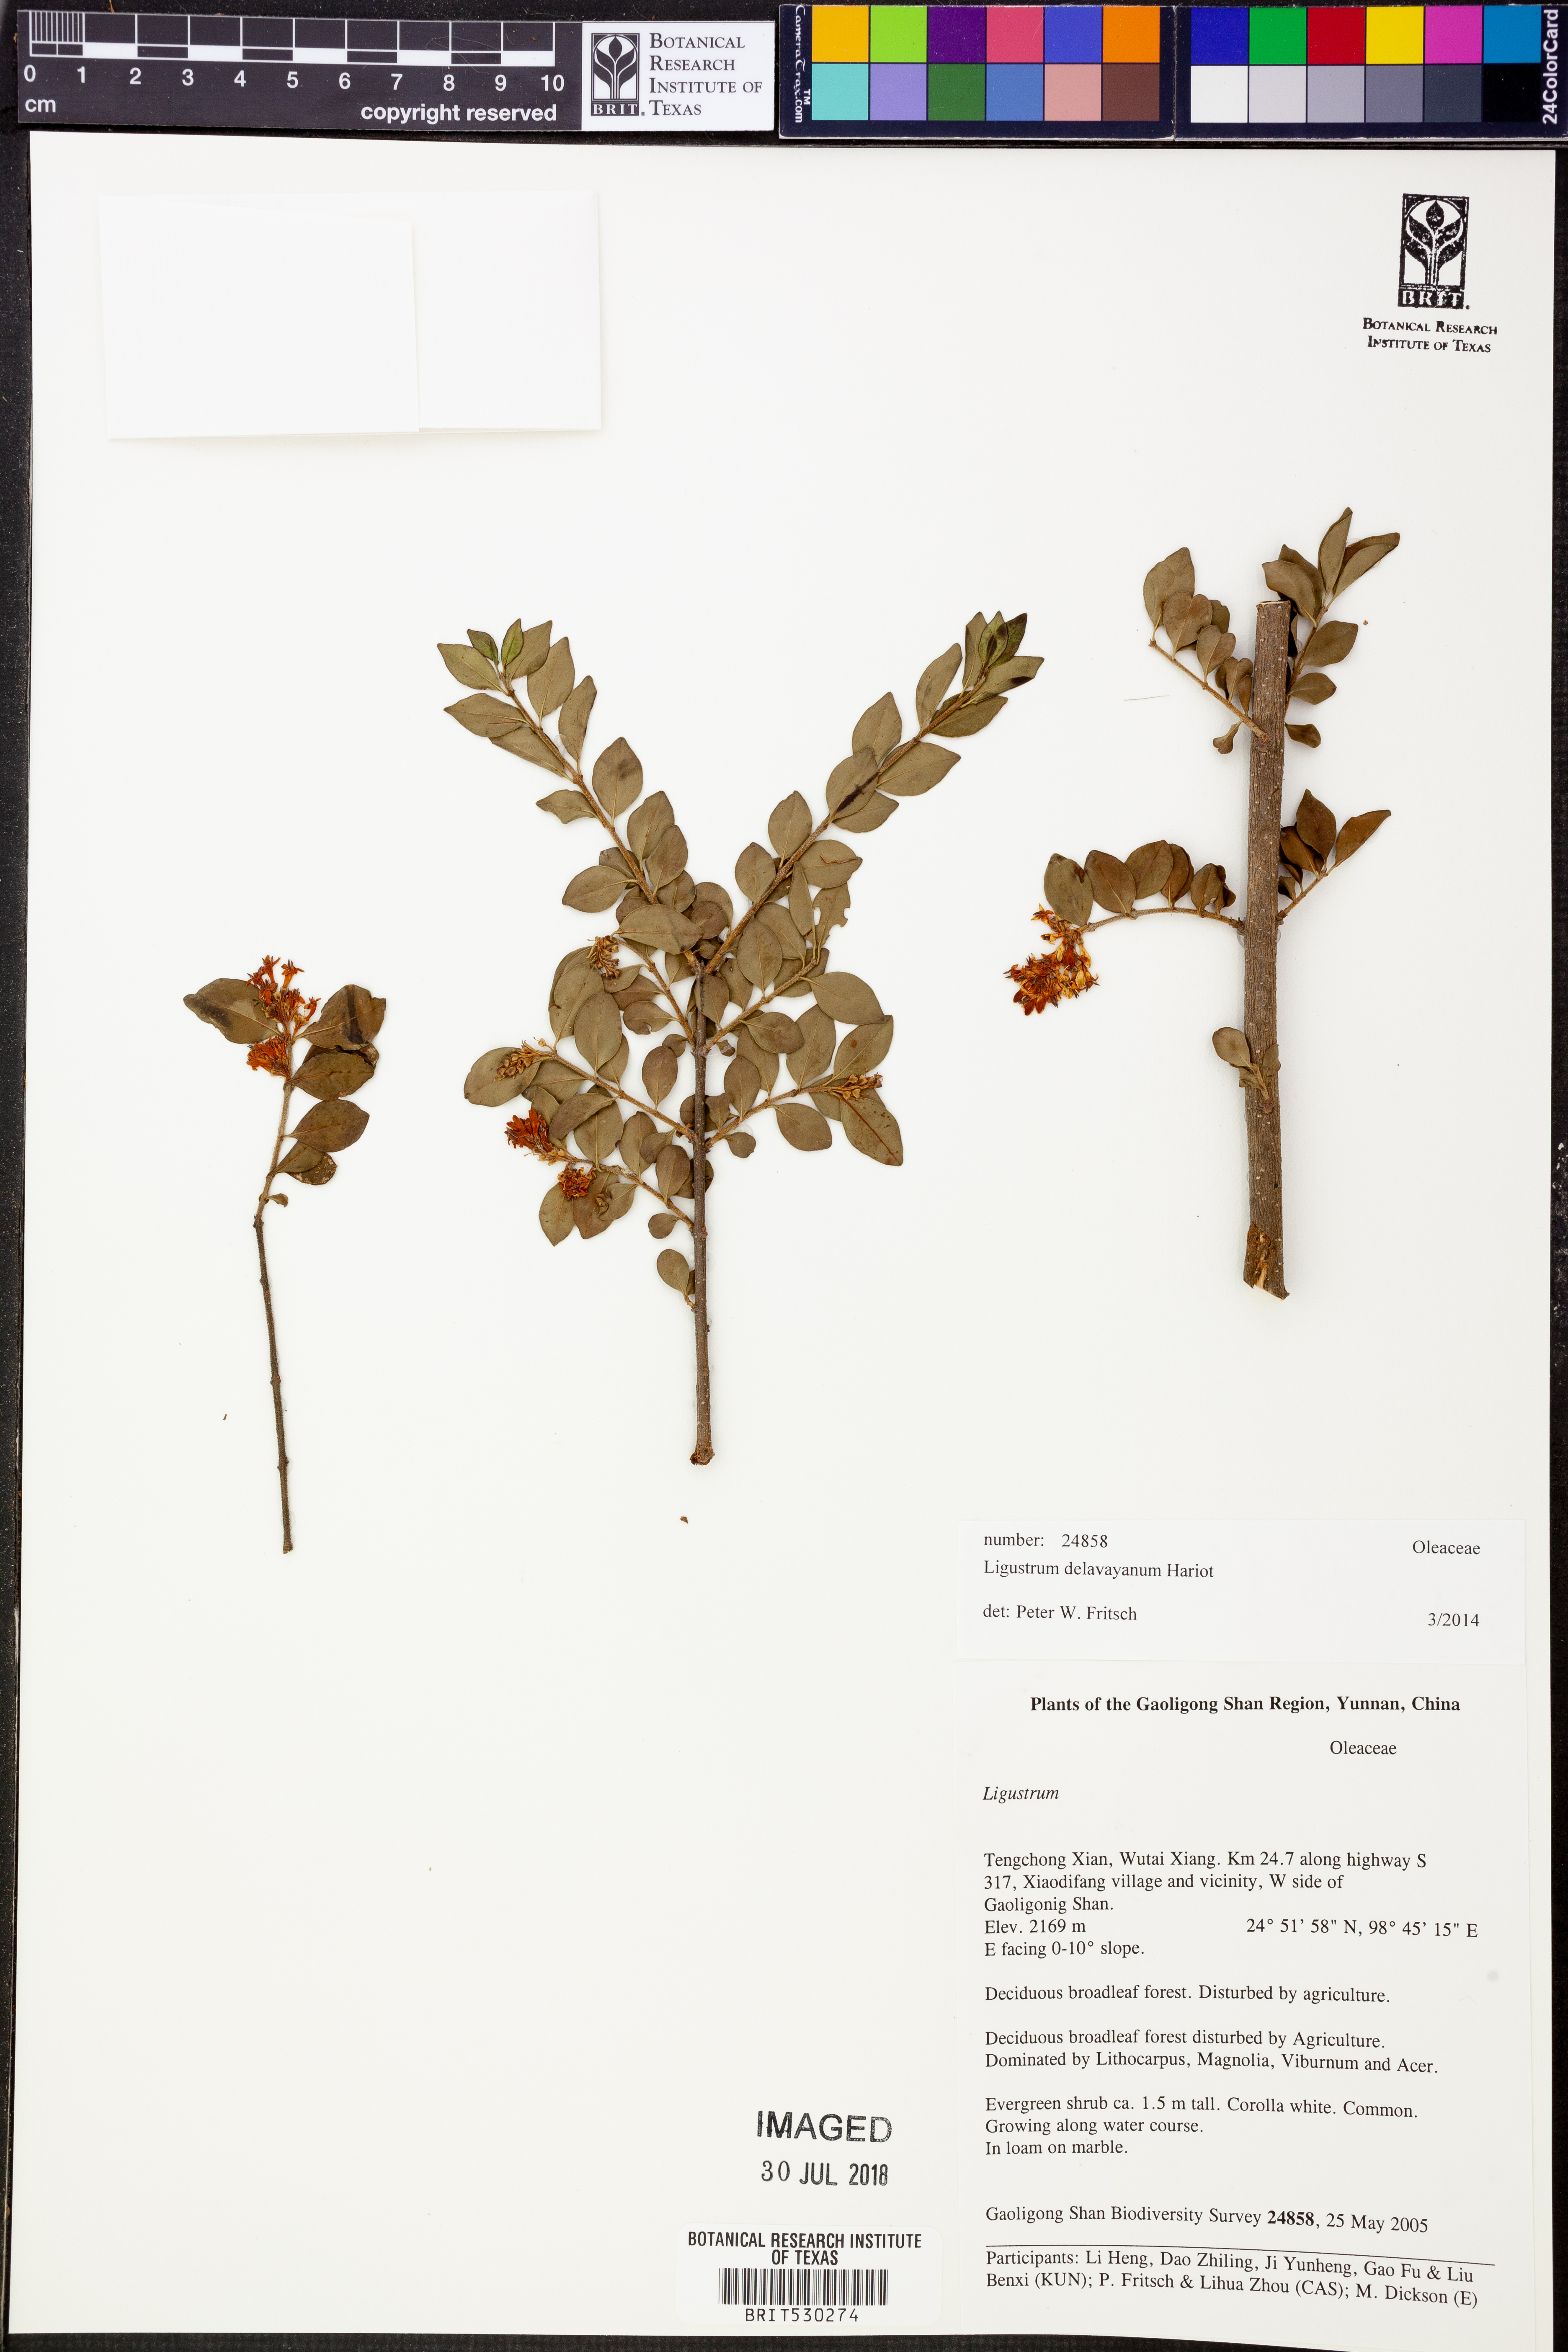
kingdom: Plantae
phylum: Tracheophyta
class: Magnoliopsida
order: Lamiales
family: Oleaceae
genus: Ligustrum
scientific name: Ligustrum delavayanum
